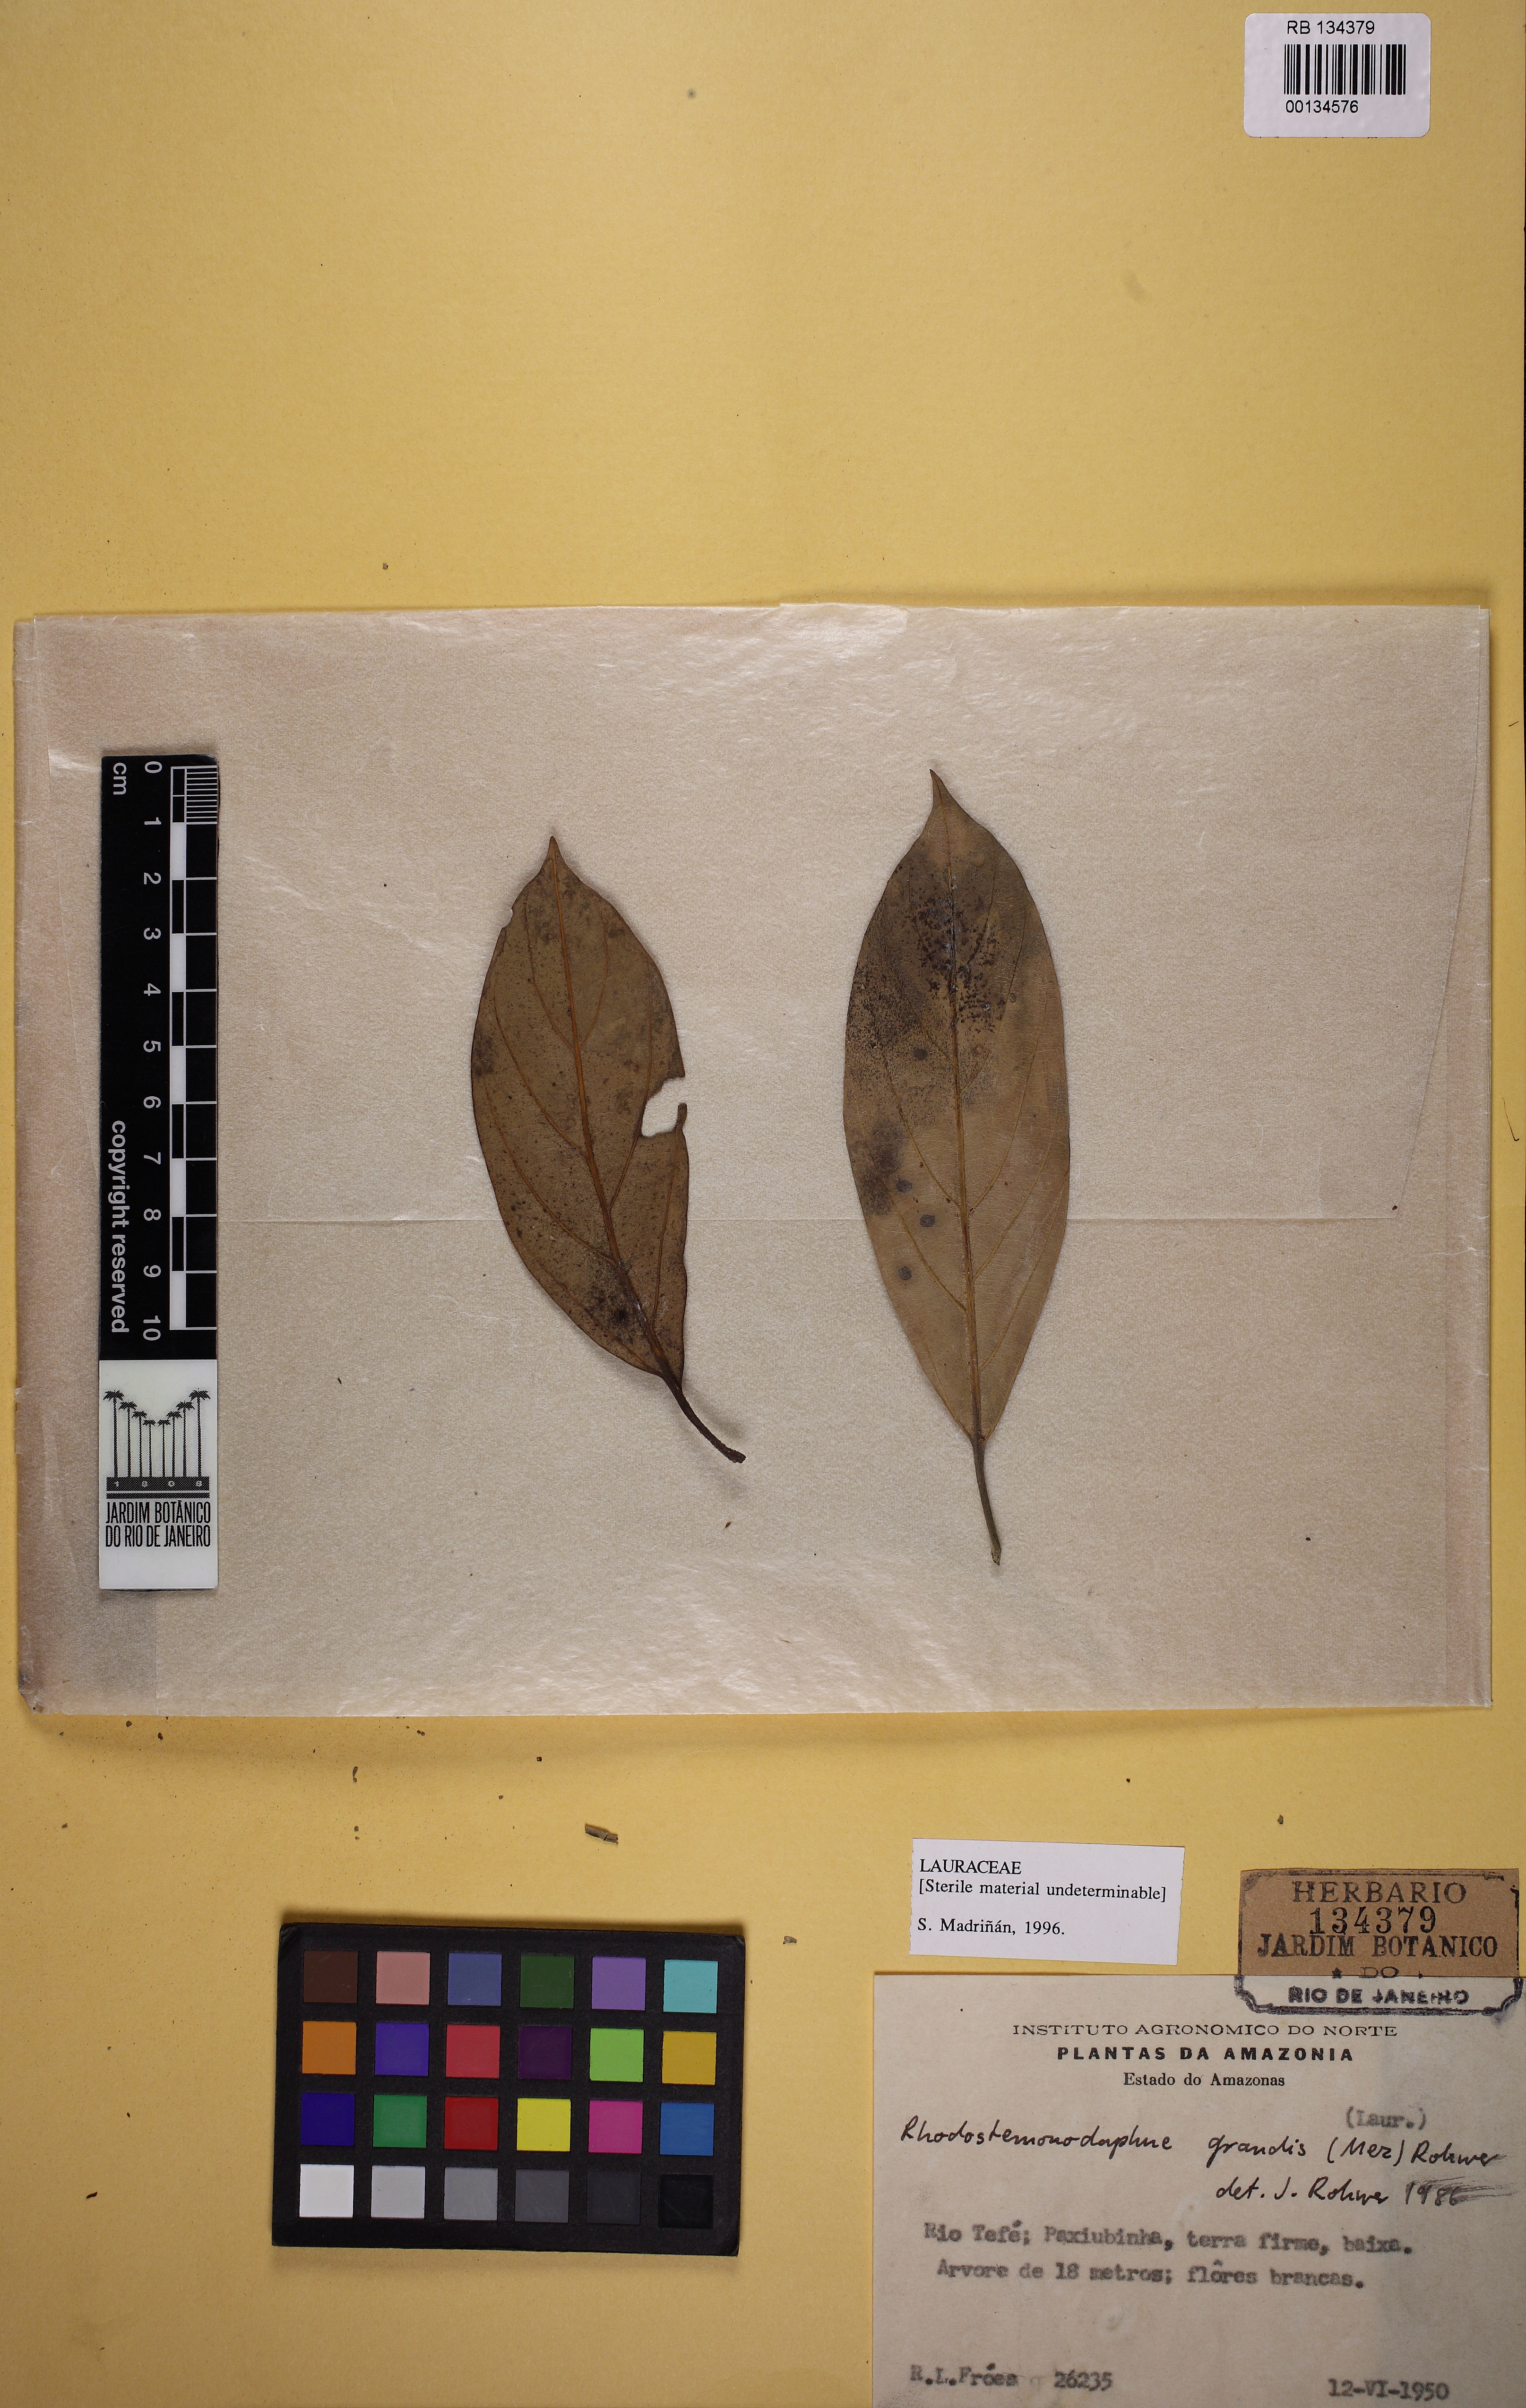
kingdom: Plantae
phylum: Tracheophyta
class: Magnoliopsida
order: Laurales
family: Lauraceae
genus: Rhodostemonodaphne
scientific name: Rhodostemonodaphne grandis
